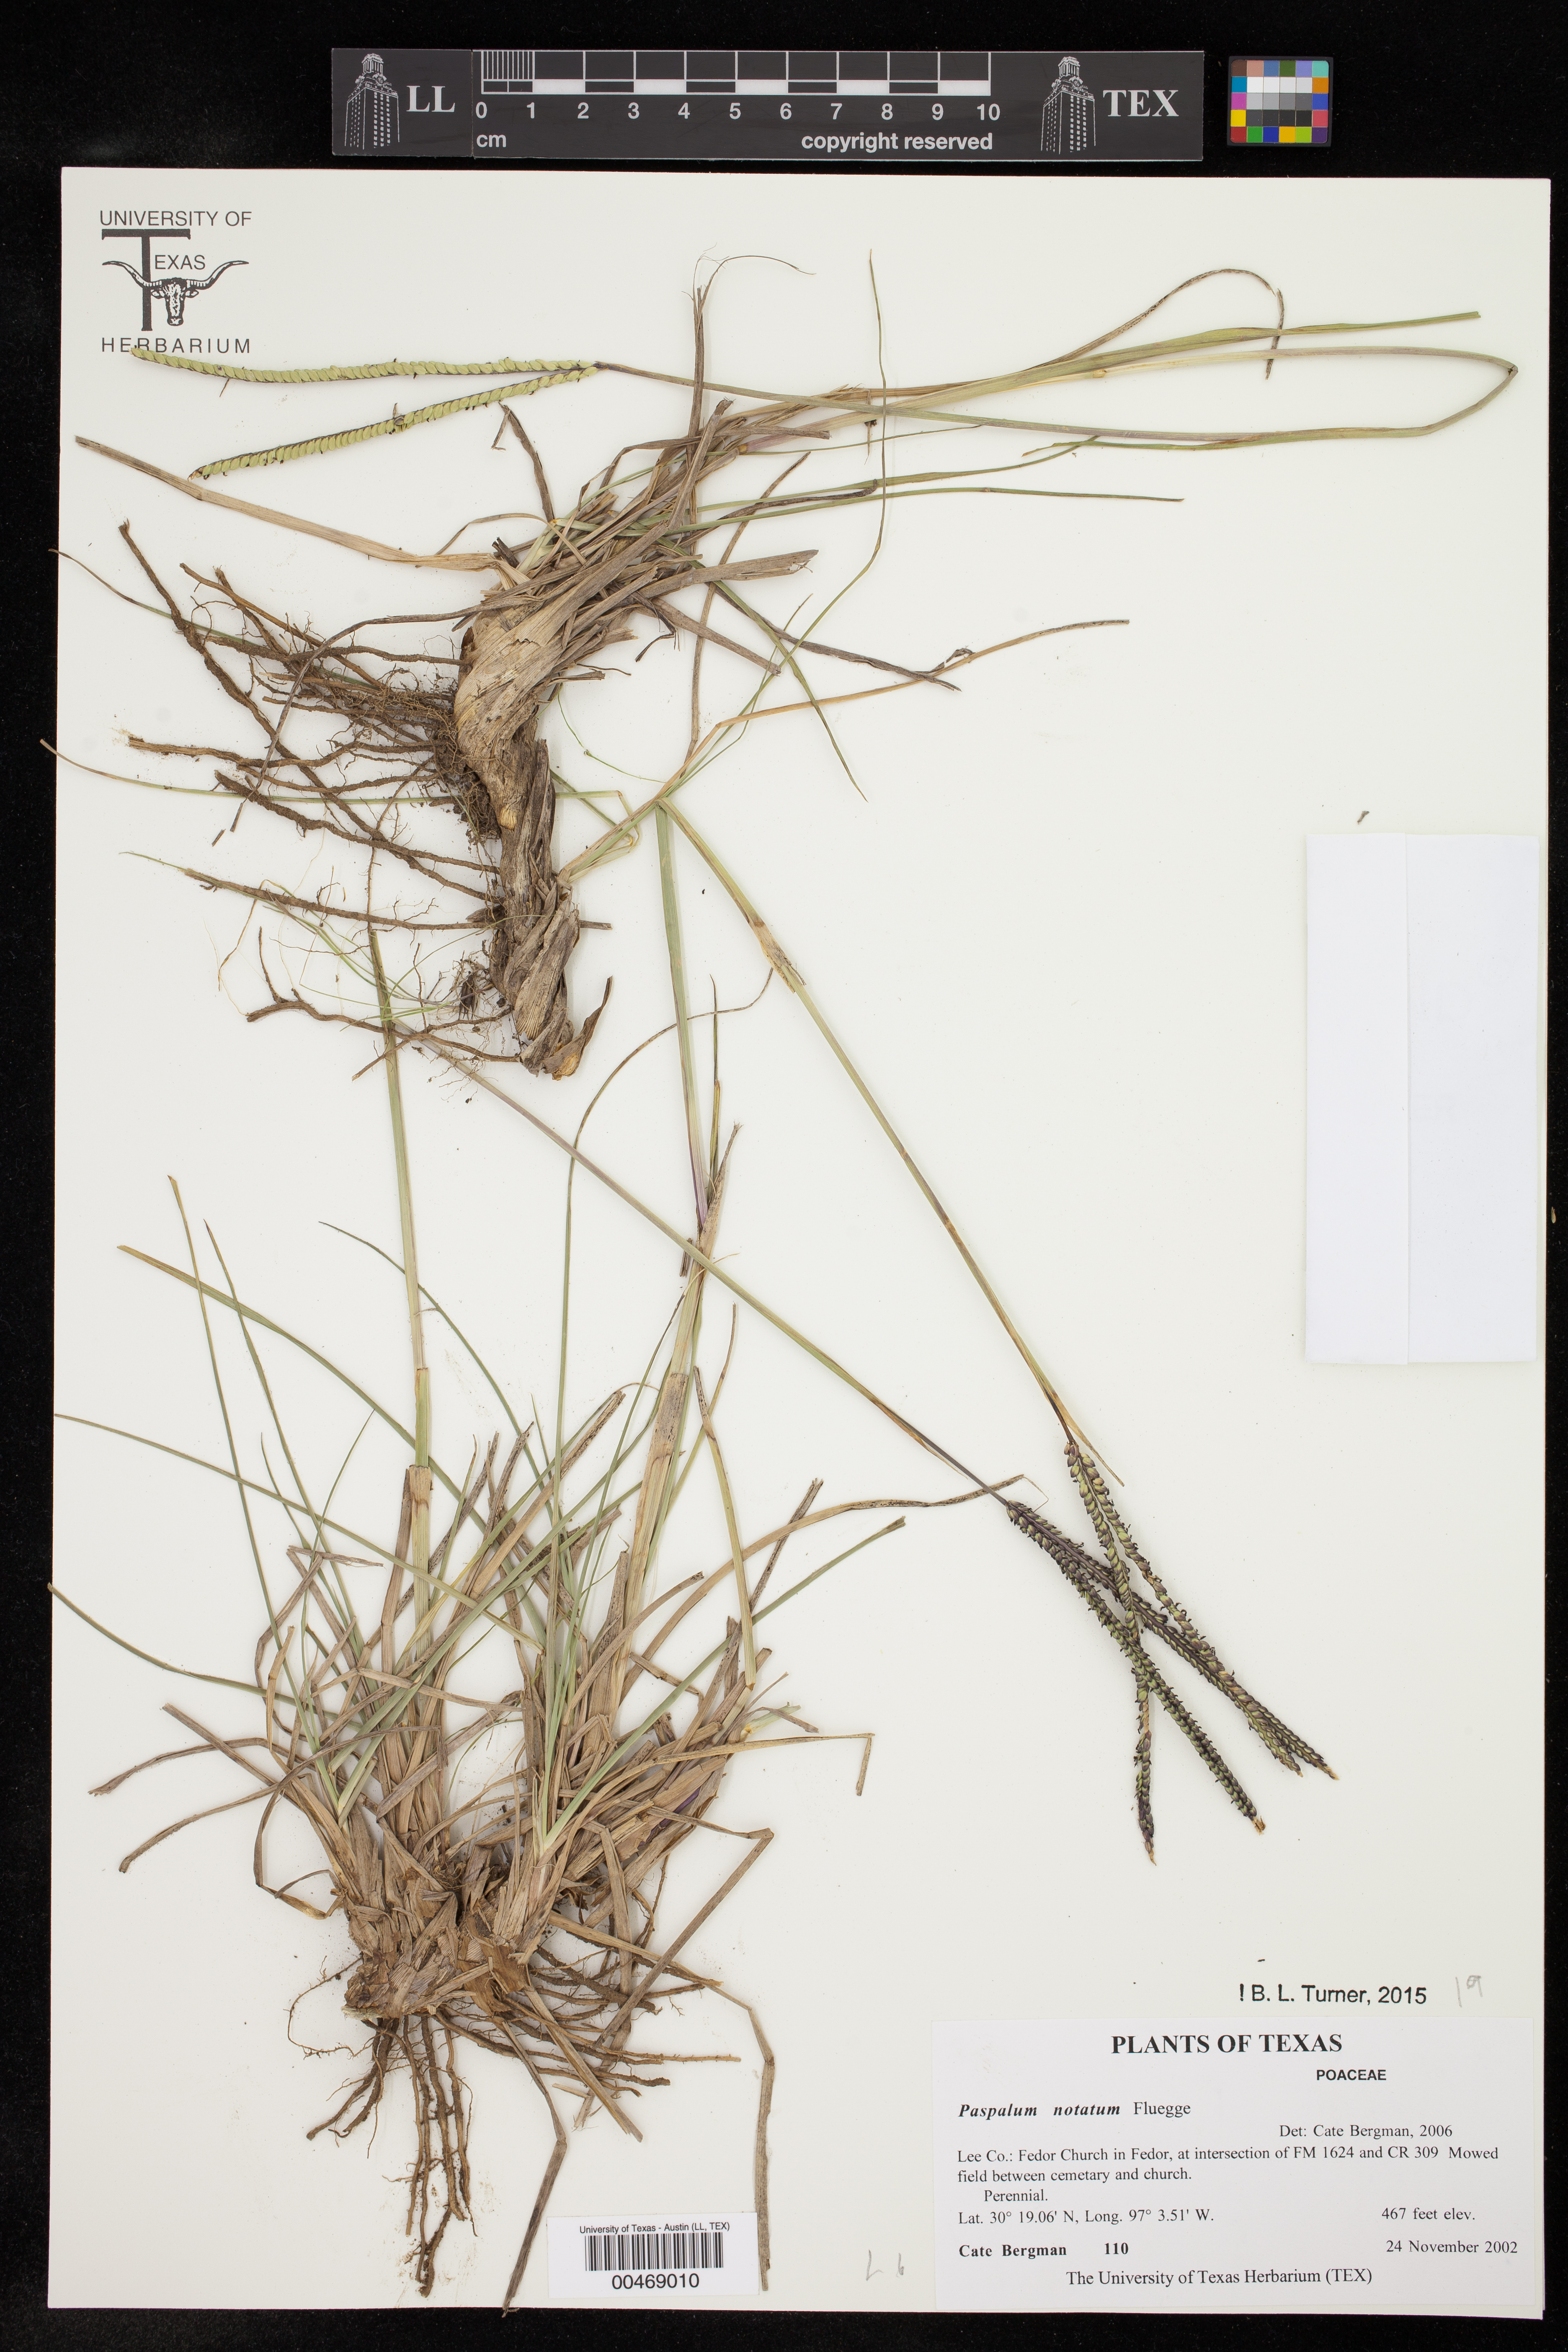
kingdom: Plantae
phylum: Tracheophyta
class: Liliopsida
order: Poales
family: Poaceae
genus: Paspalum
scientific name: Paspalum notatum
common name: Bahiagrass
